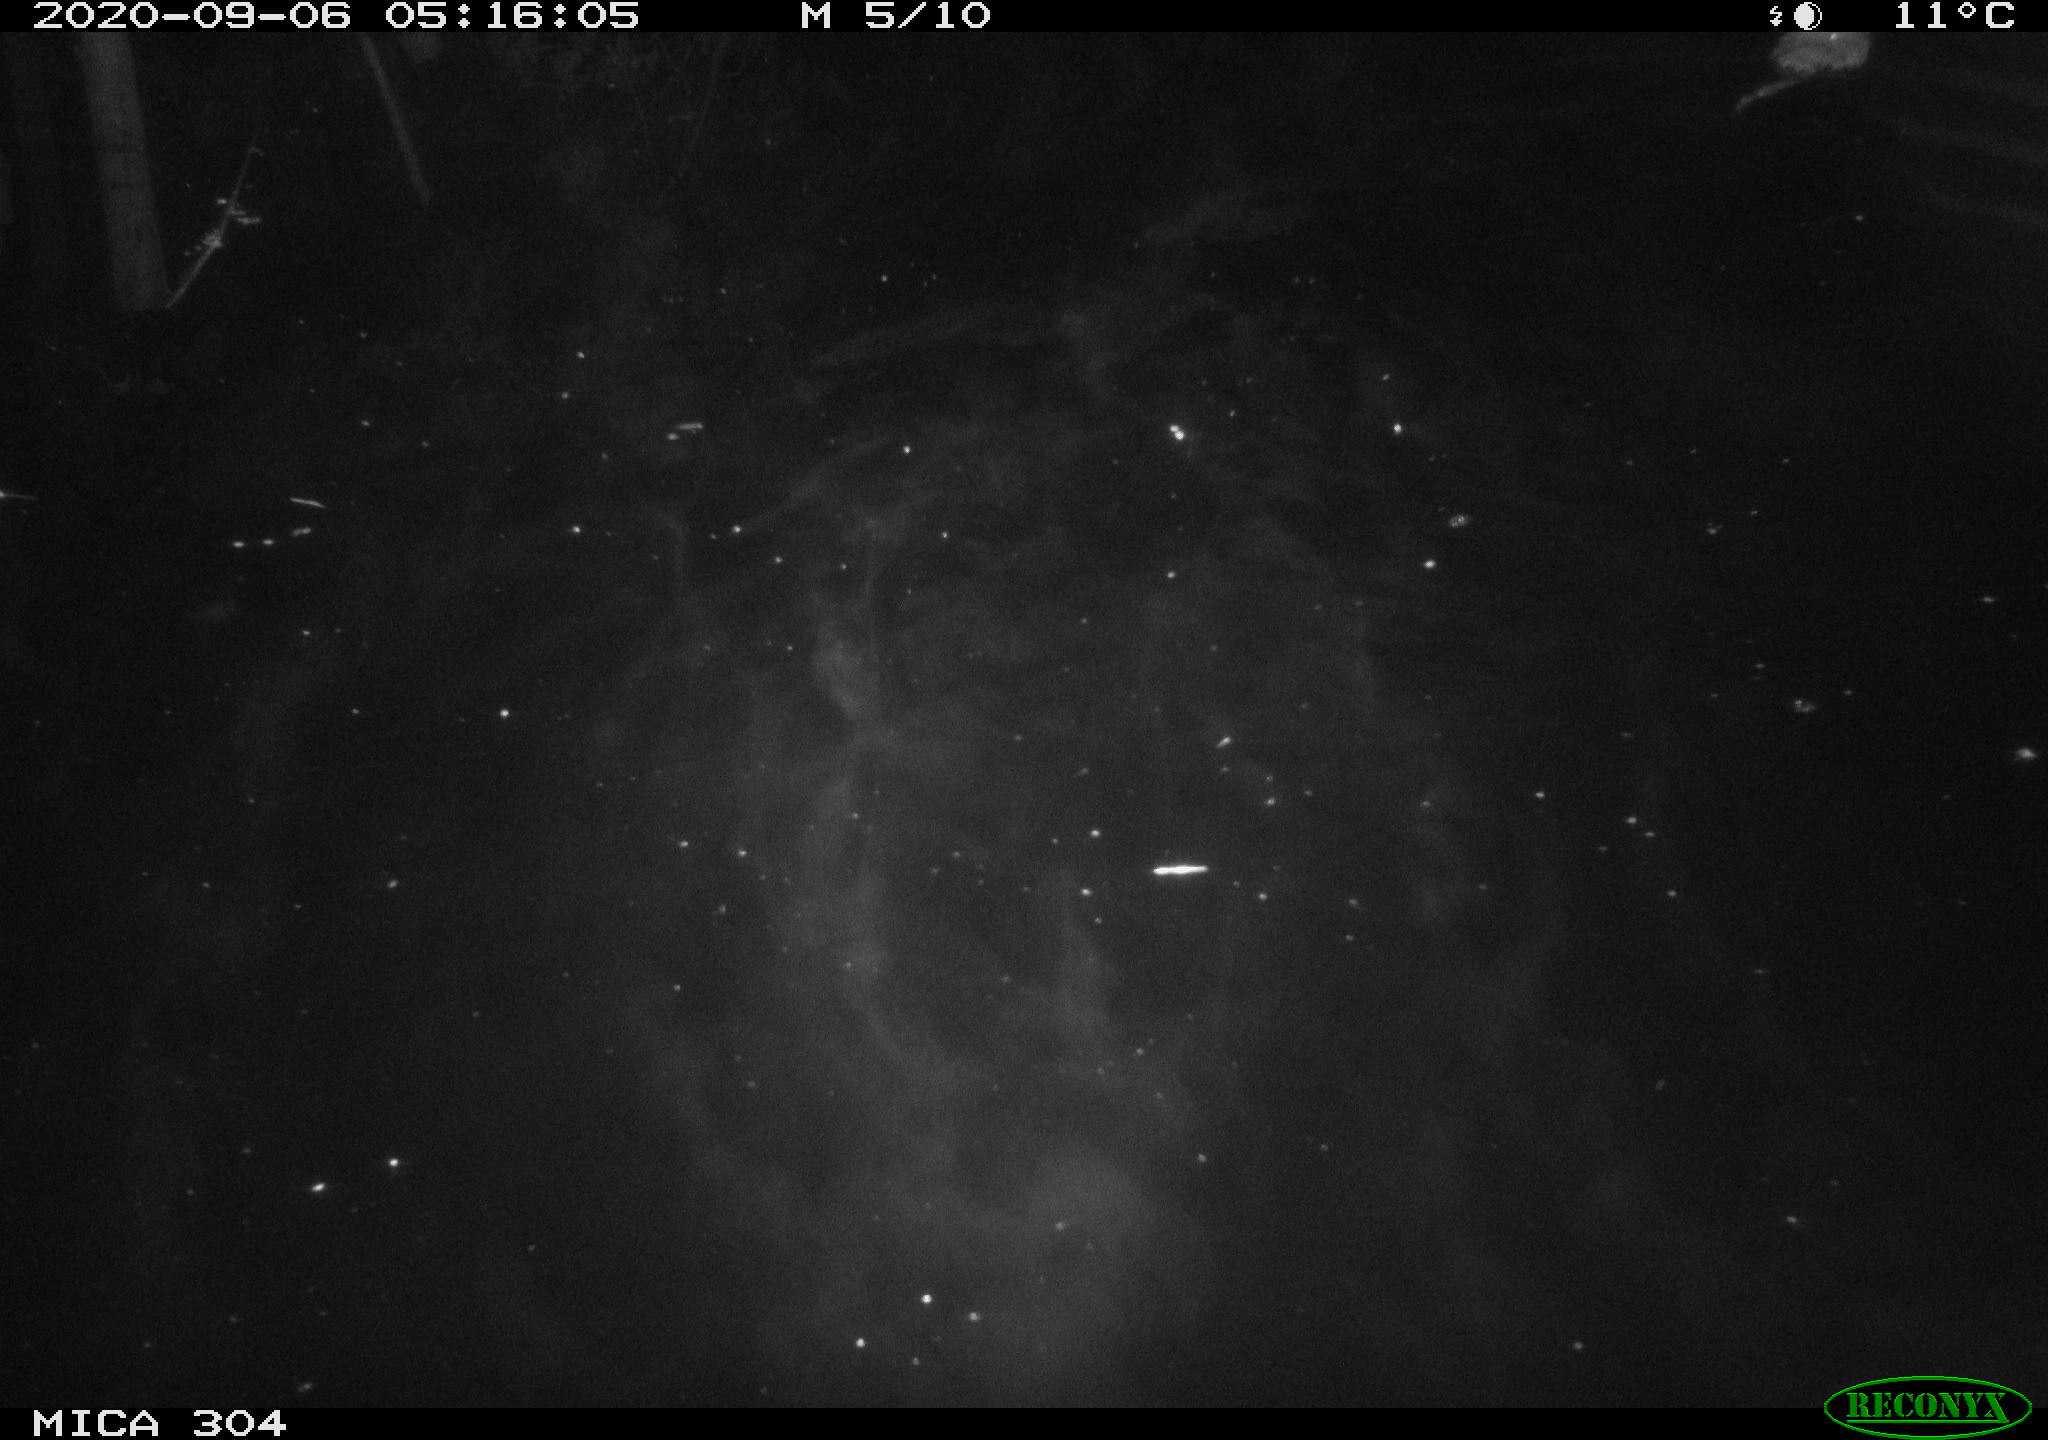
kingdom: Animalia
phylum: Chordata
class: Mammalia
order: Rodentia
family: Cricetidae
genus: Ondatra
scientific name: Ondatra zibethicus
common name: Muskrat
